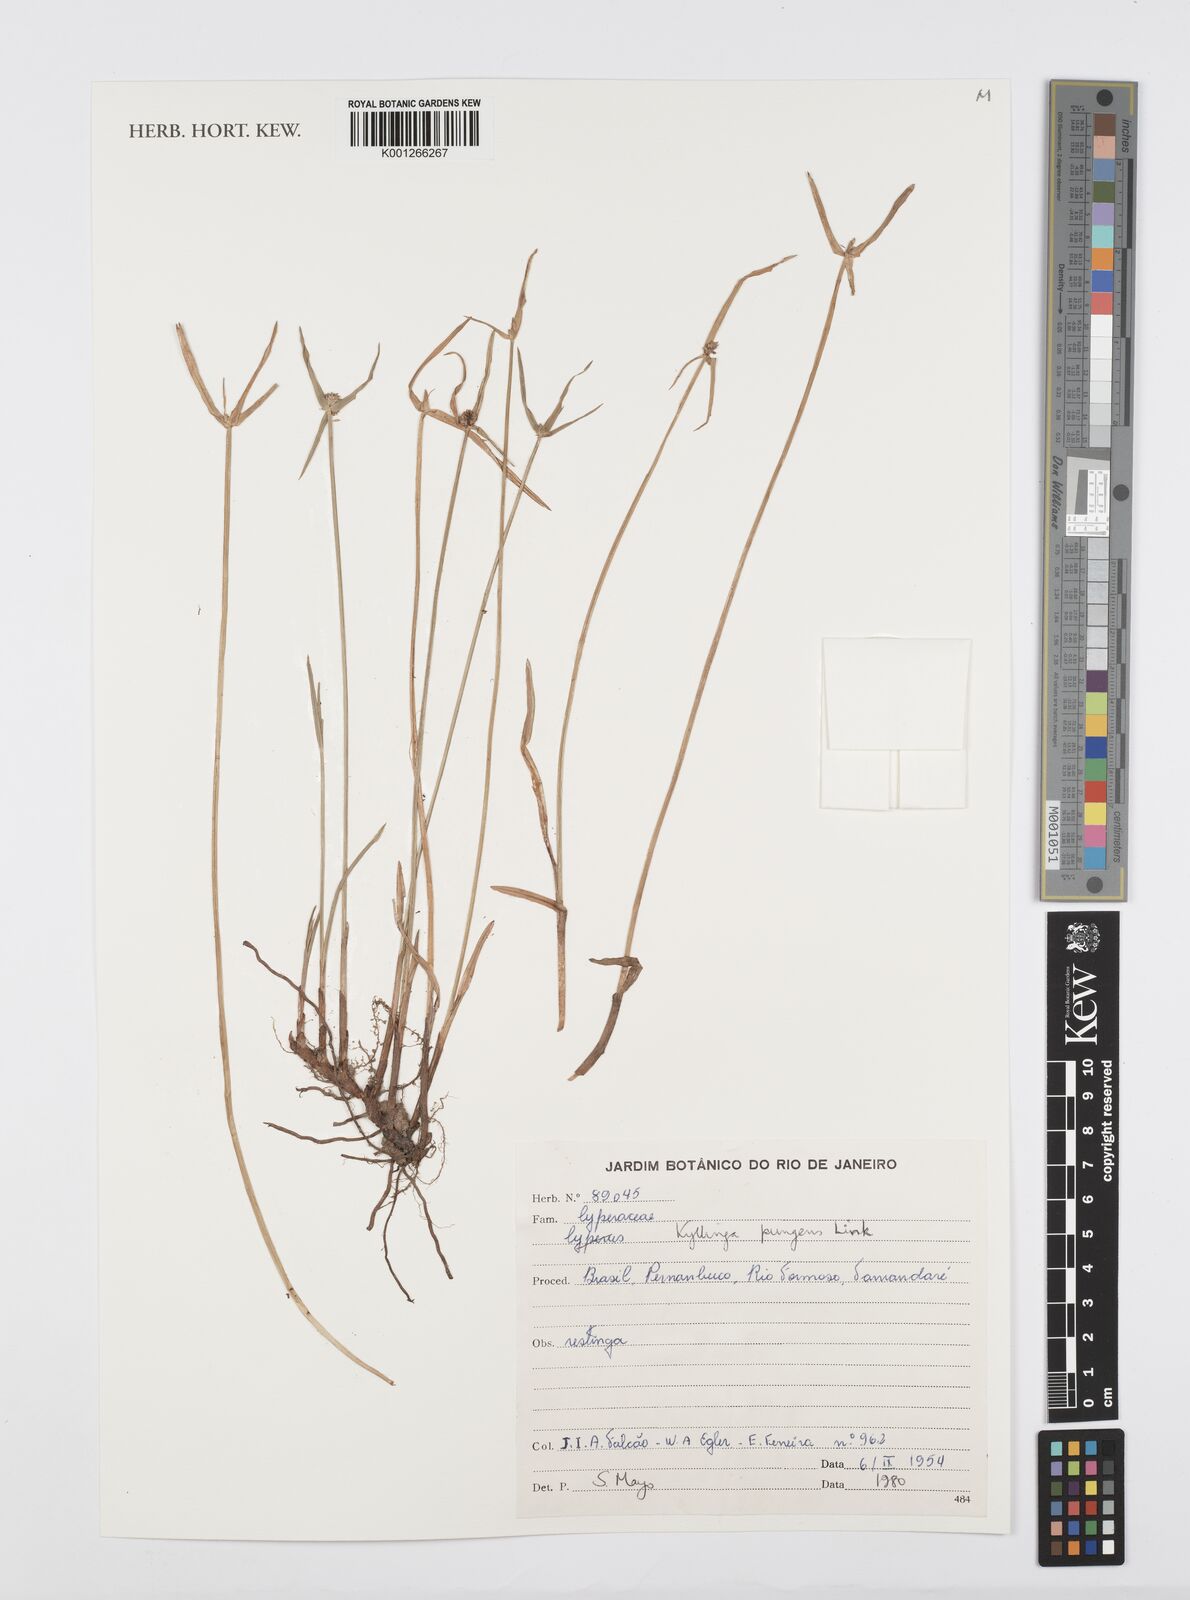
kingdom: Plantae
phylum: Tracheophyta
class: Liliopsida
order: Poales
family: Cyperaceae
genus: Cyperus
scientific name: Cyperus obtusatus
